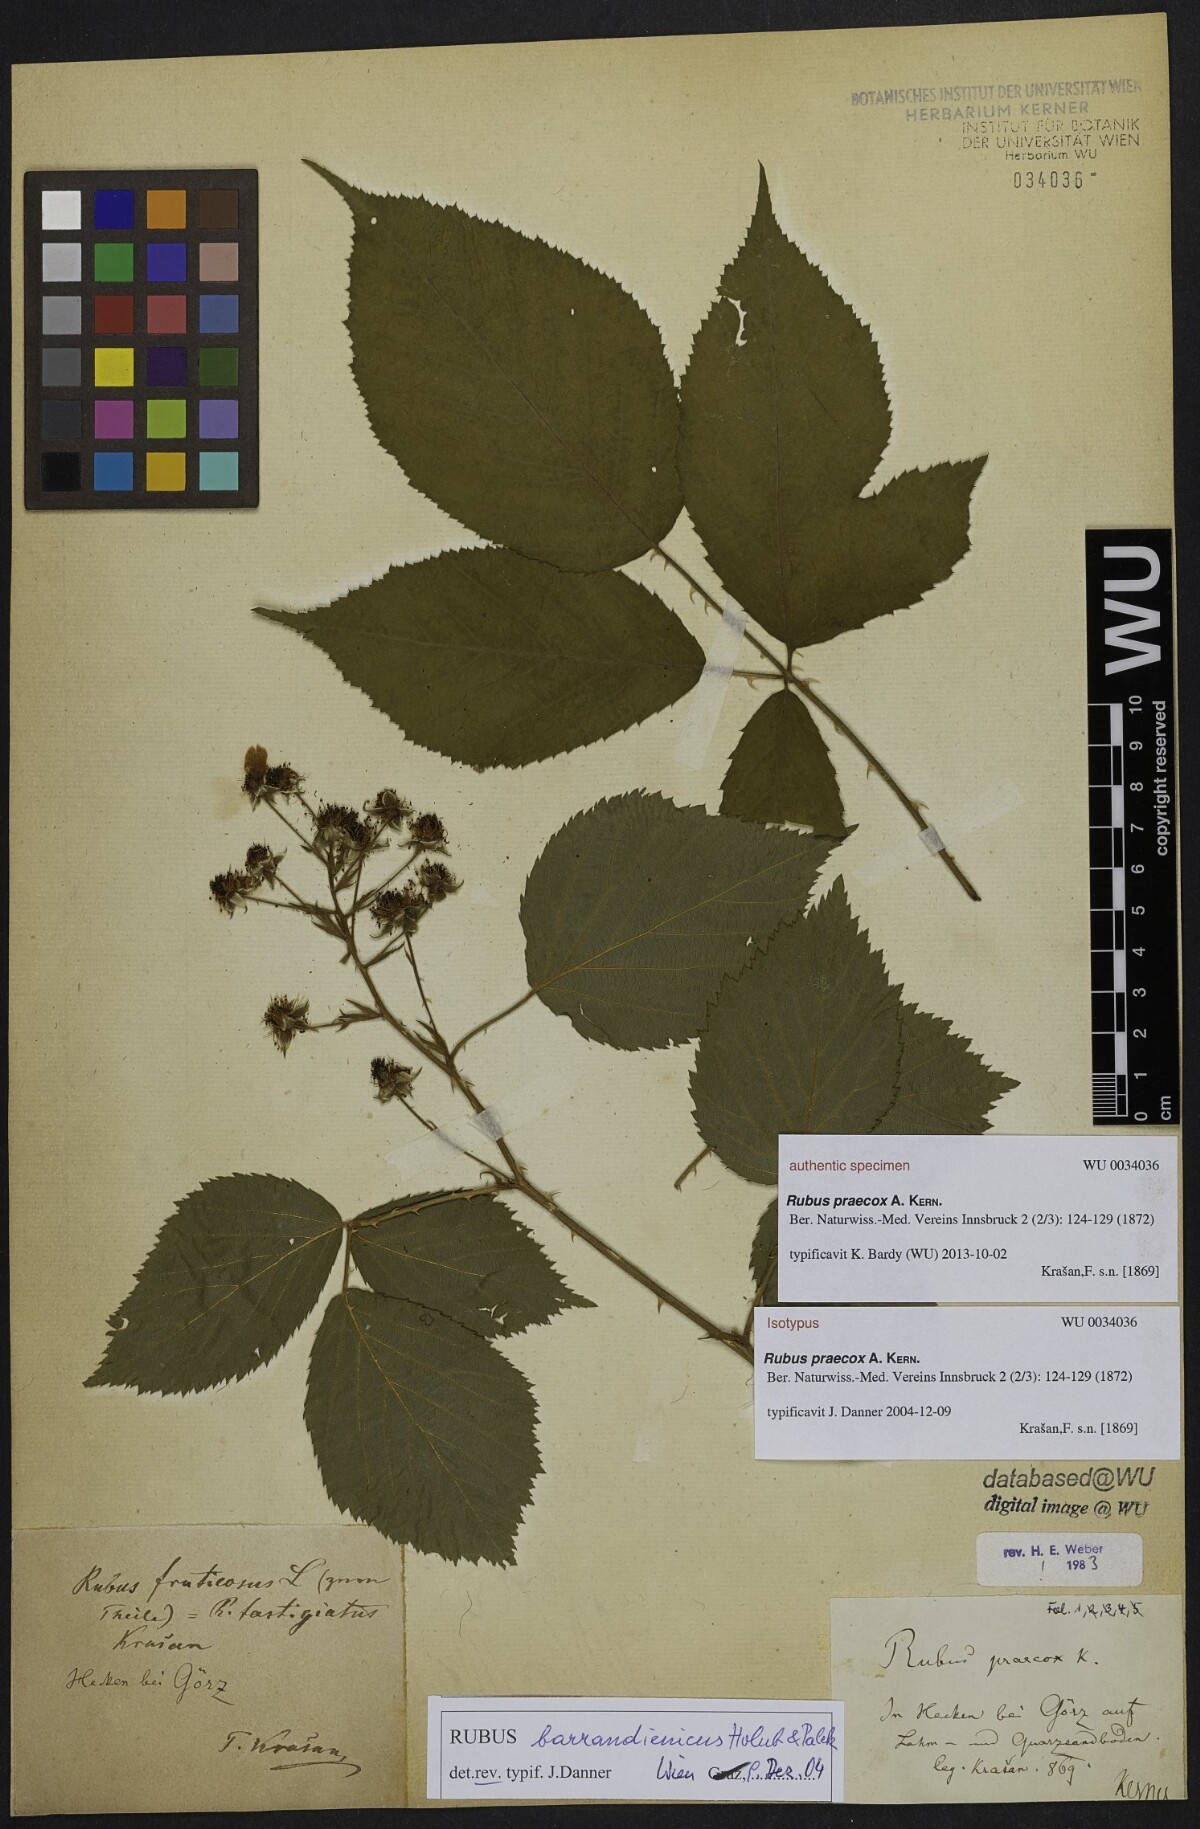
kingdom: Plantae
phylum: Tracheophyta
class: Magnoliopsida
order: Rosales
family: Rosaceae
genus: Rubus
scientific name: Rubus sulcatus
